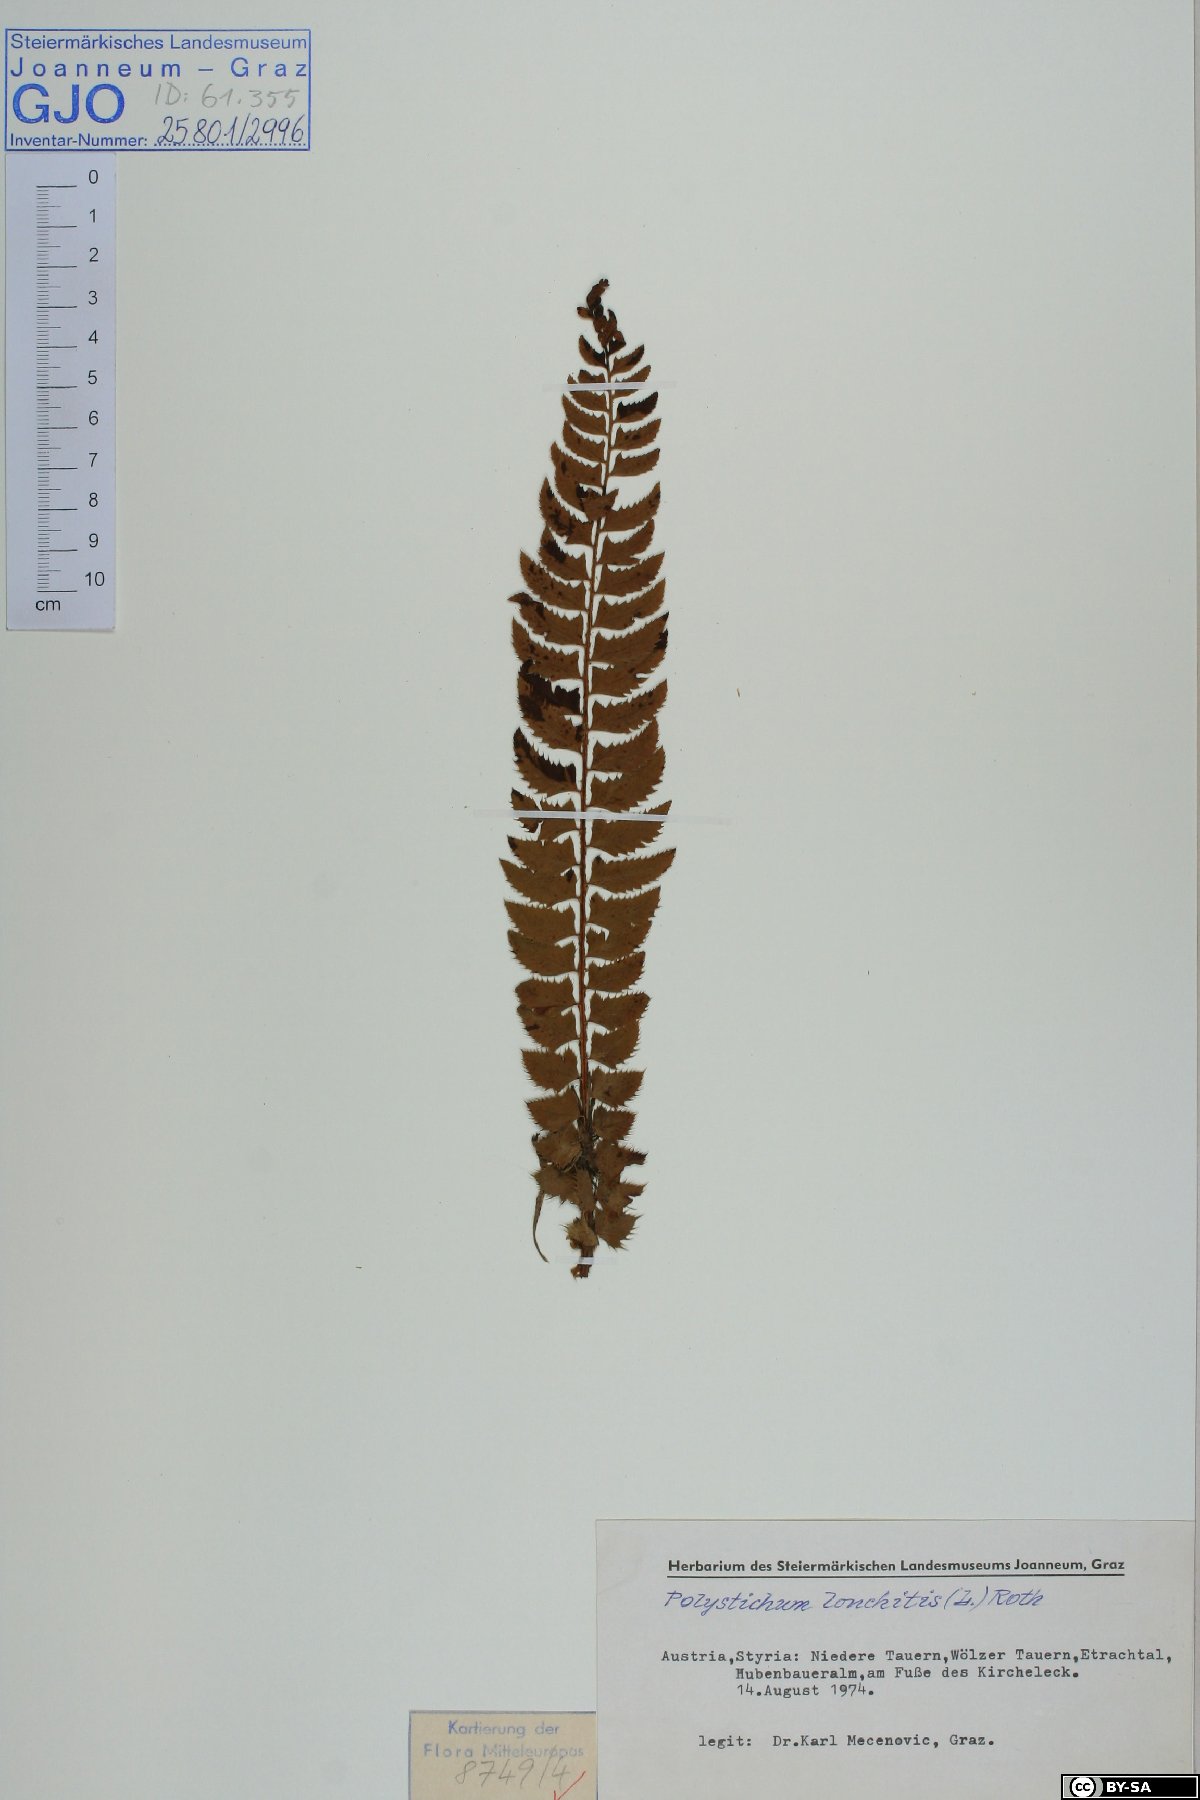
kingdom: Plantae
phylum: Tracheophyta
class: Polypodiopsida
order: Polypodiales
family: Dryopteridaceae
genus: Polystichum
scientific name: Polystichum lonchitis
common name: Holly fern
